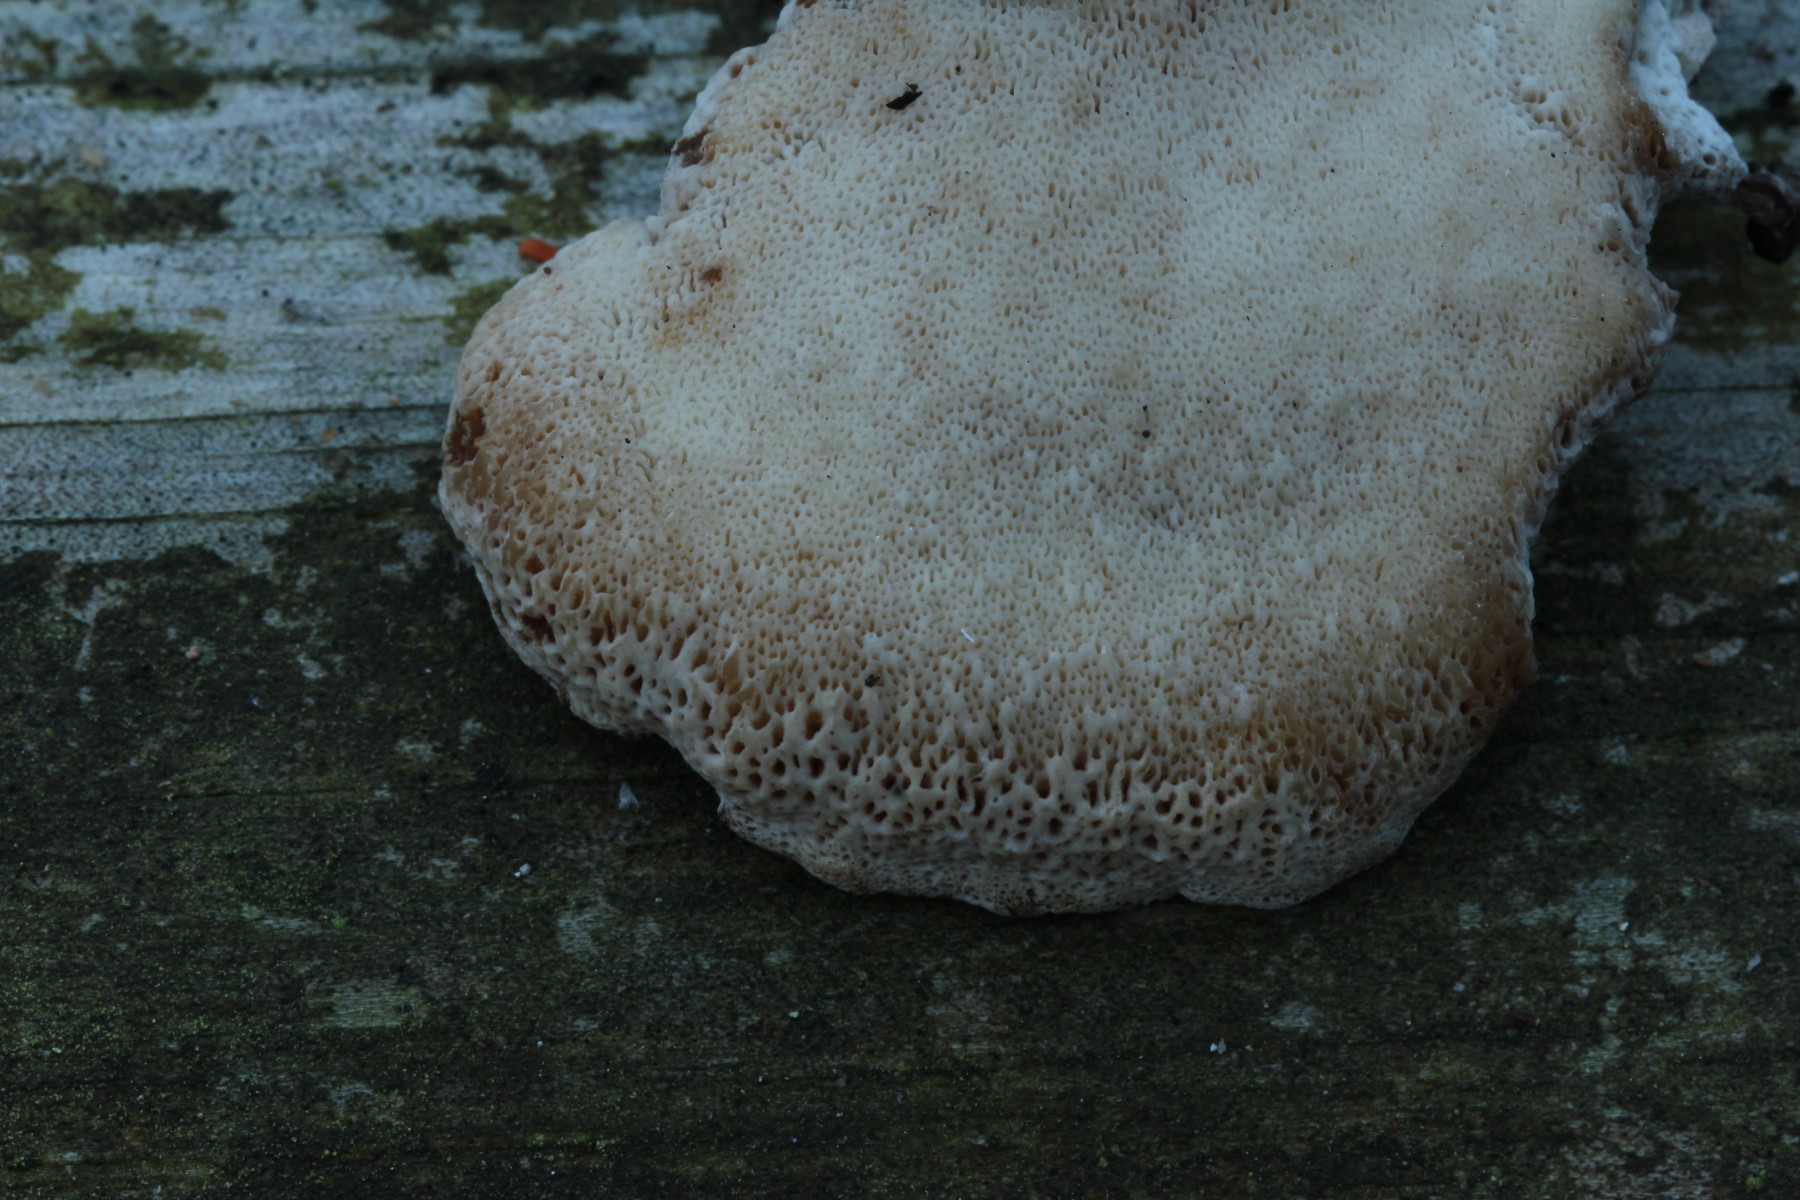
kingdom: Fungi
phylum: Basidiomycota
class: Agaricomycetes
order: Polyporales
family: Ischnodermataceae
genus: Ischnoderma
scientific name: Ischnoderma benzoinum
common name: gran-tjæreporesvamp
